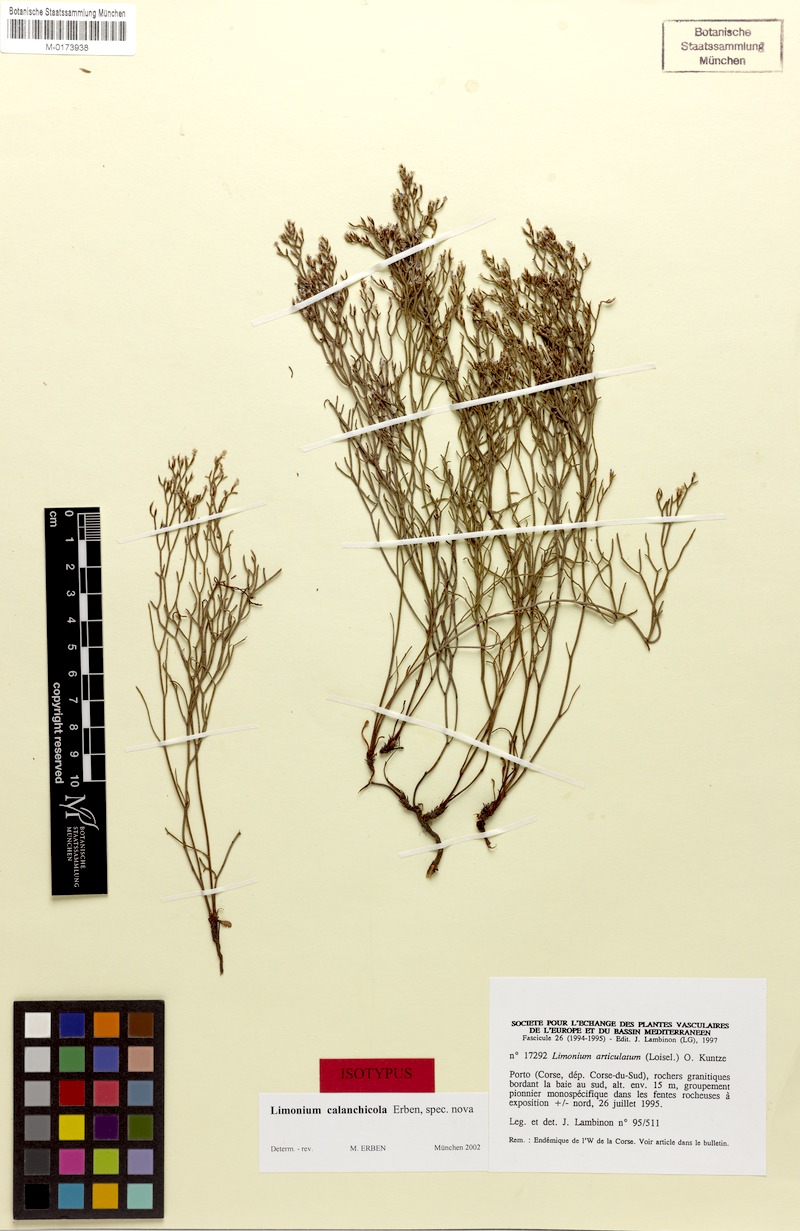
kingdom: Plantae
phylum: Tracheophyta
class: Magnoliopsida
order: Caryophyllales
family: Plumbaginaceae
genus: Limonium
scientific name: Limonium calanchicola
